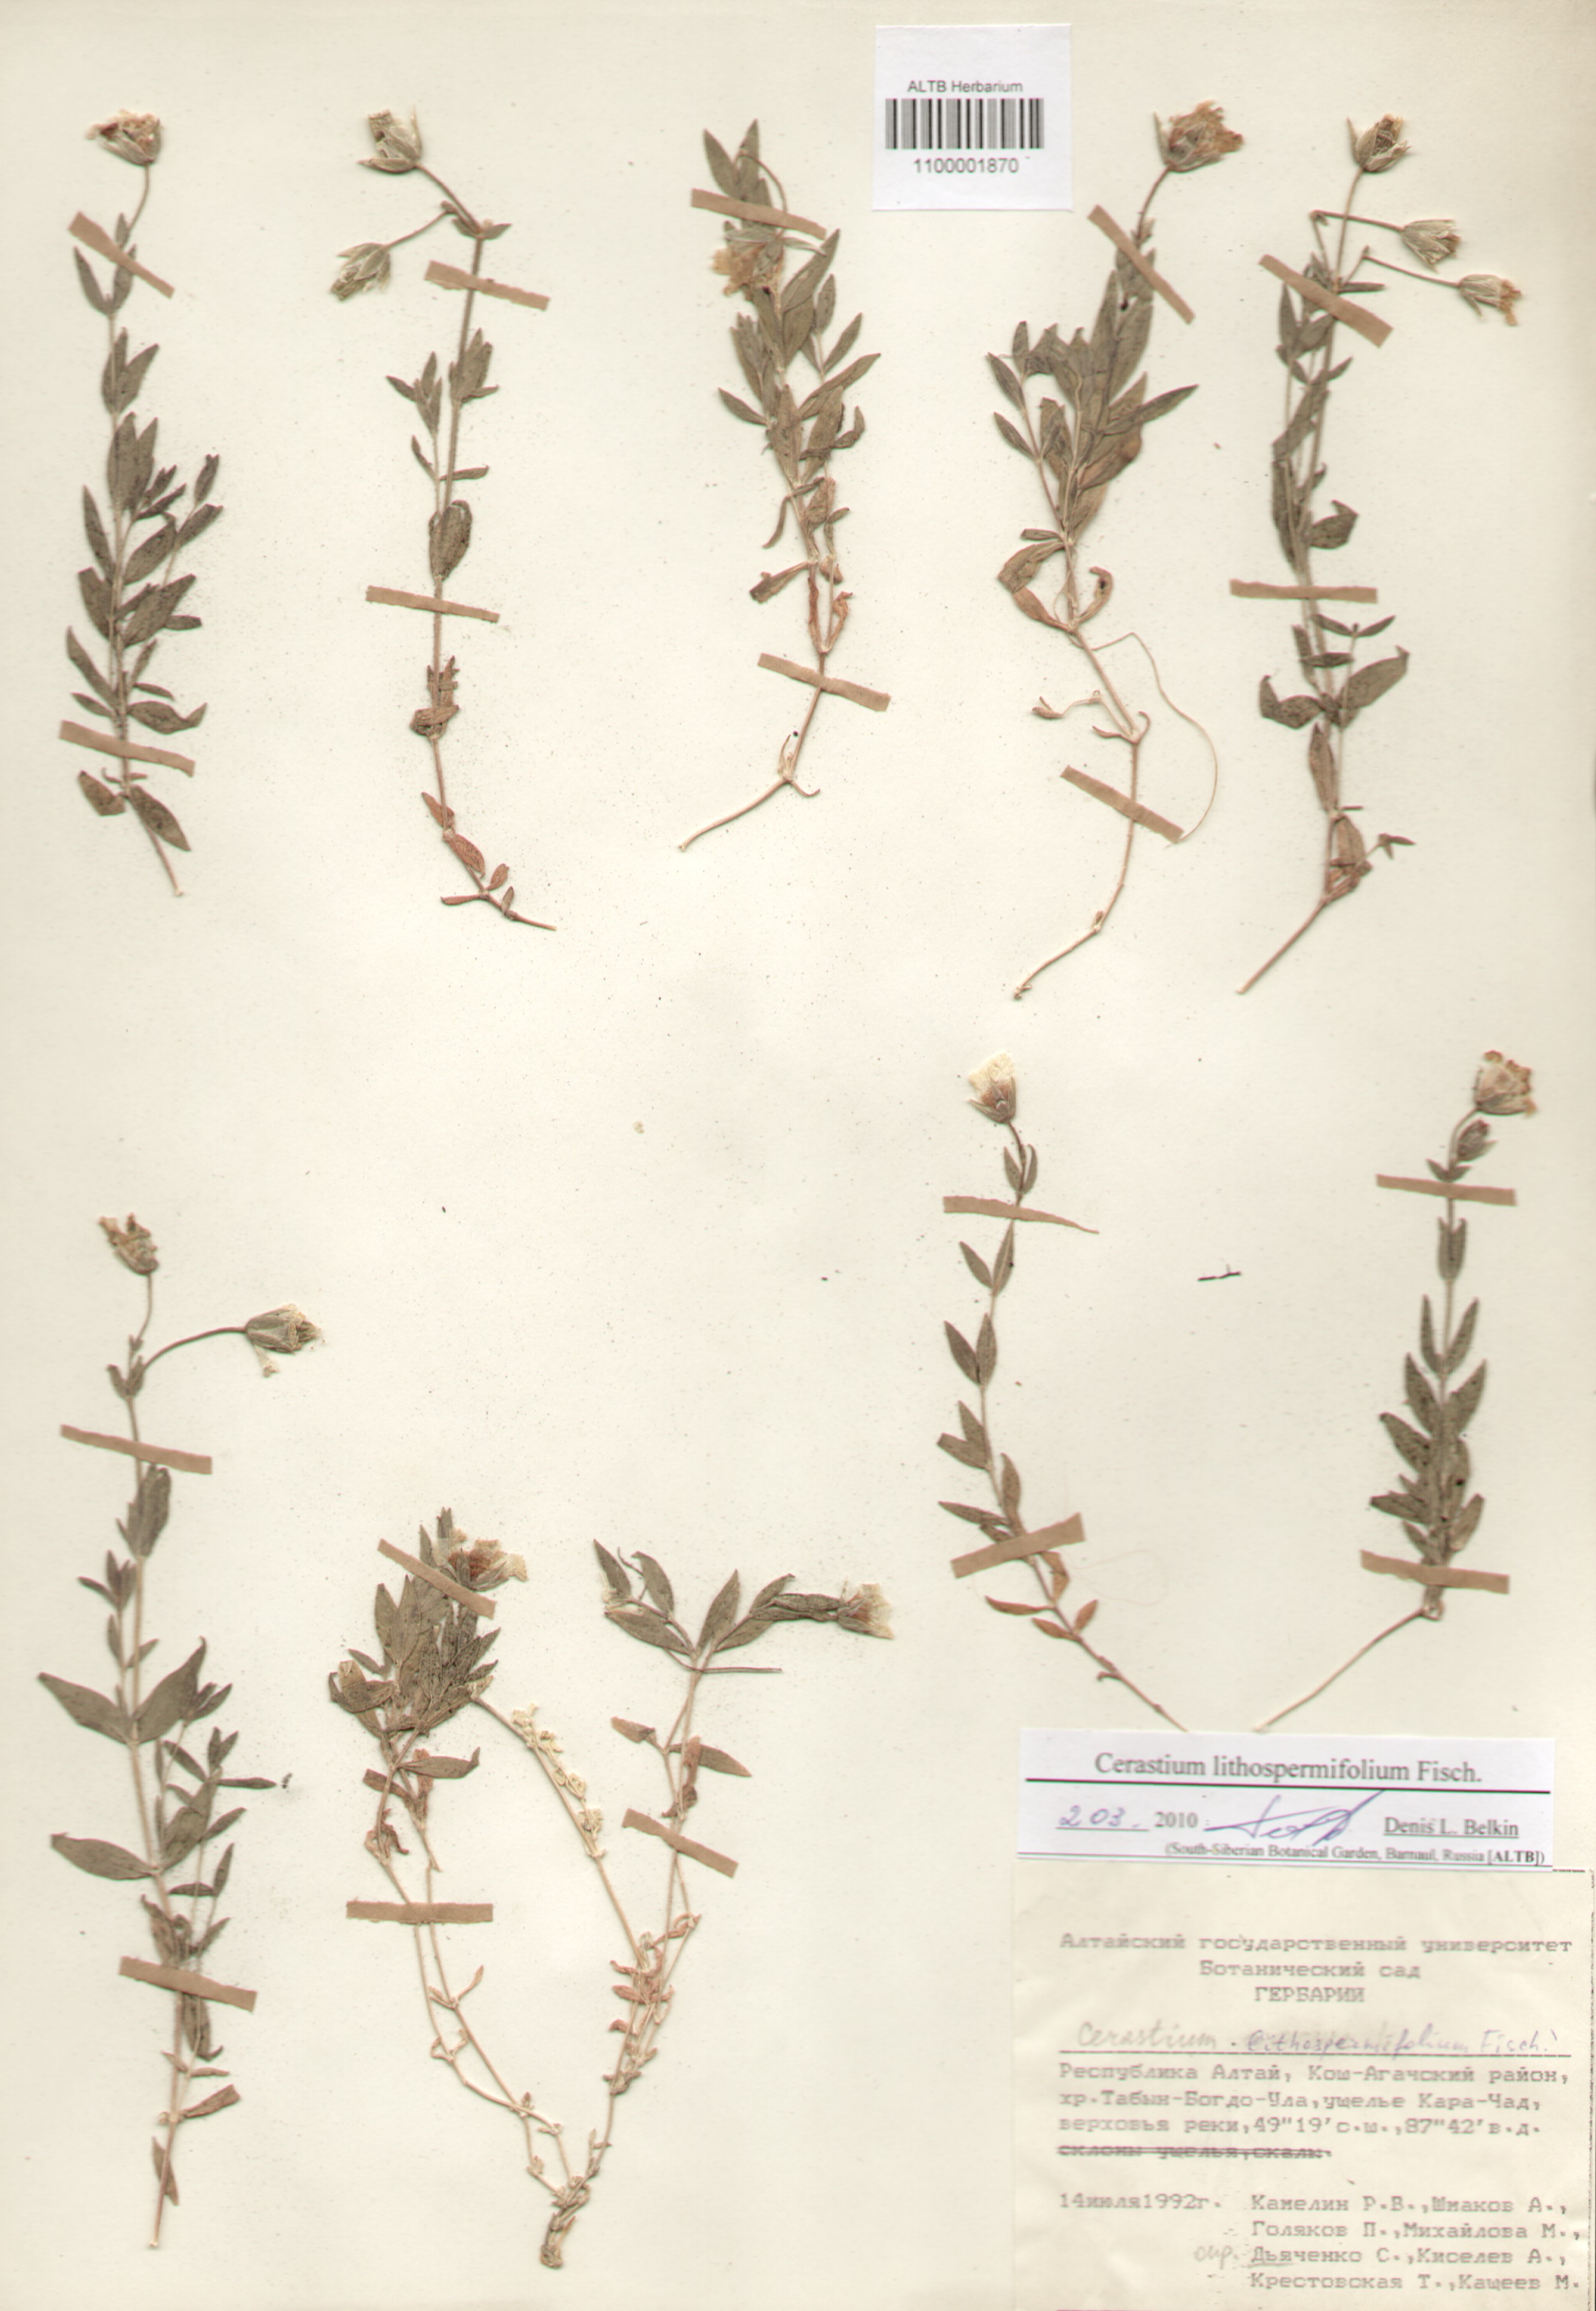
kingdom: Plantae
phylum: Tracheophyta
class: Magnoliopsida
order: Caryophyllales
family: Caryophyllaceae
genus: Cerastium
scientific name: Cerastium lithospermifolium
